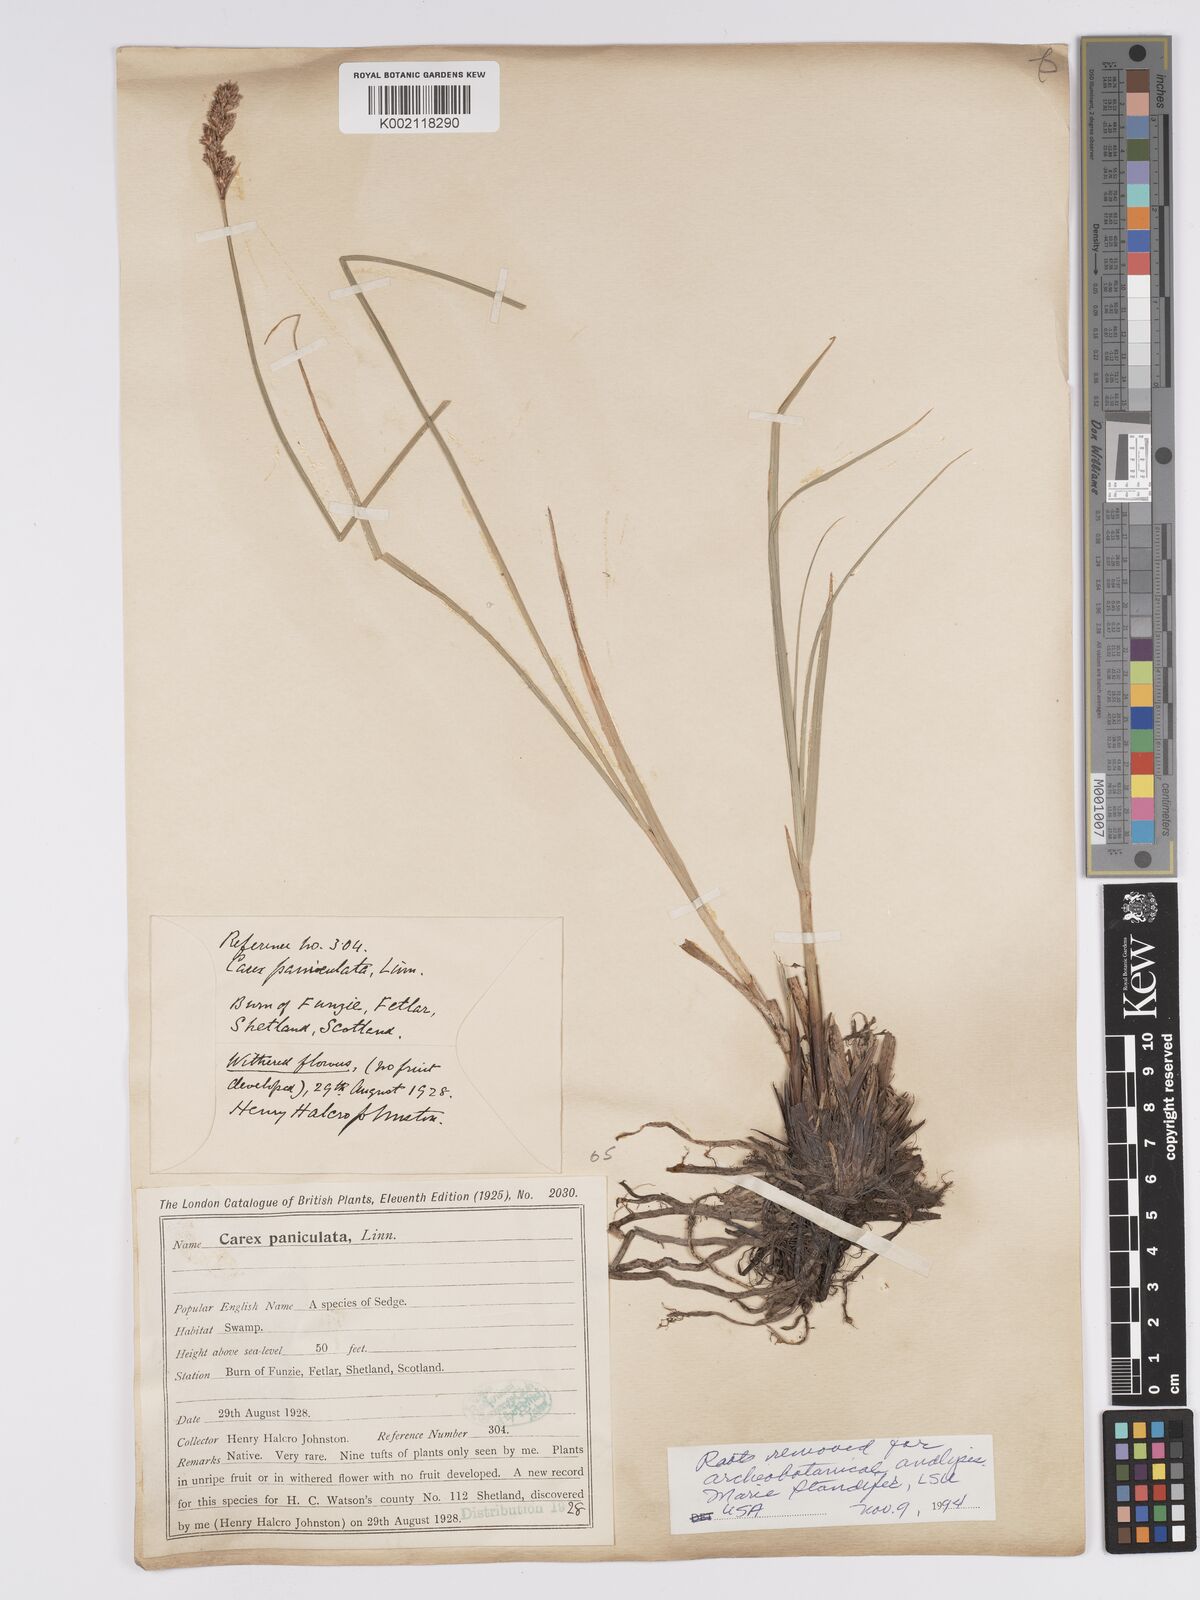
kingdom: Plantae
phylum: Tracheophyta
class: Liliopsida
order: Poales
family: Cyperaceae
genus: Carex
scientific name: Carex paniculata
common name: Greater tussock-sedge
